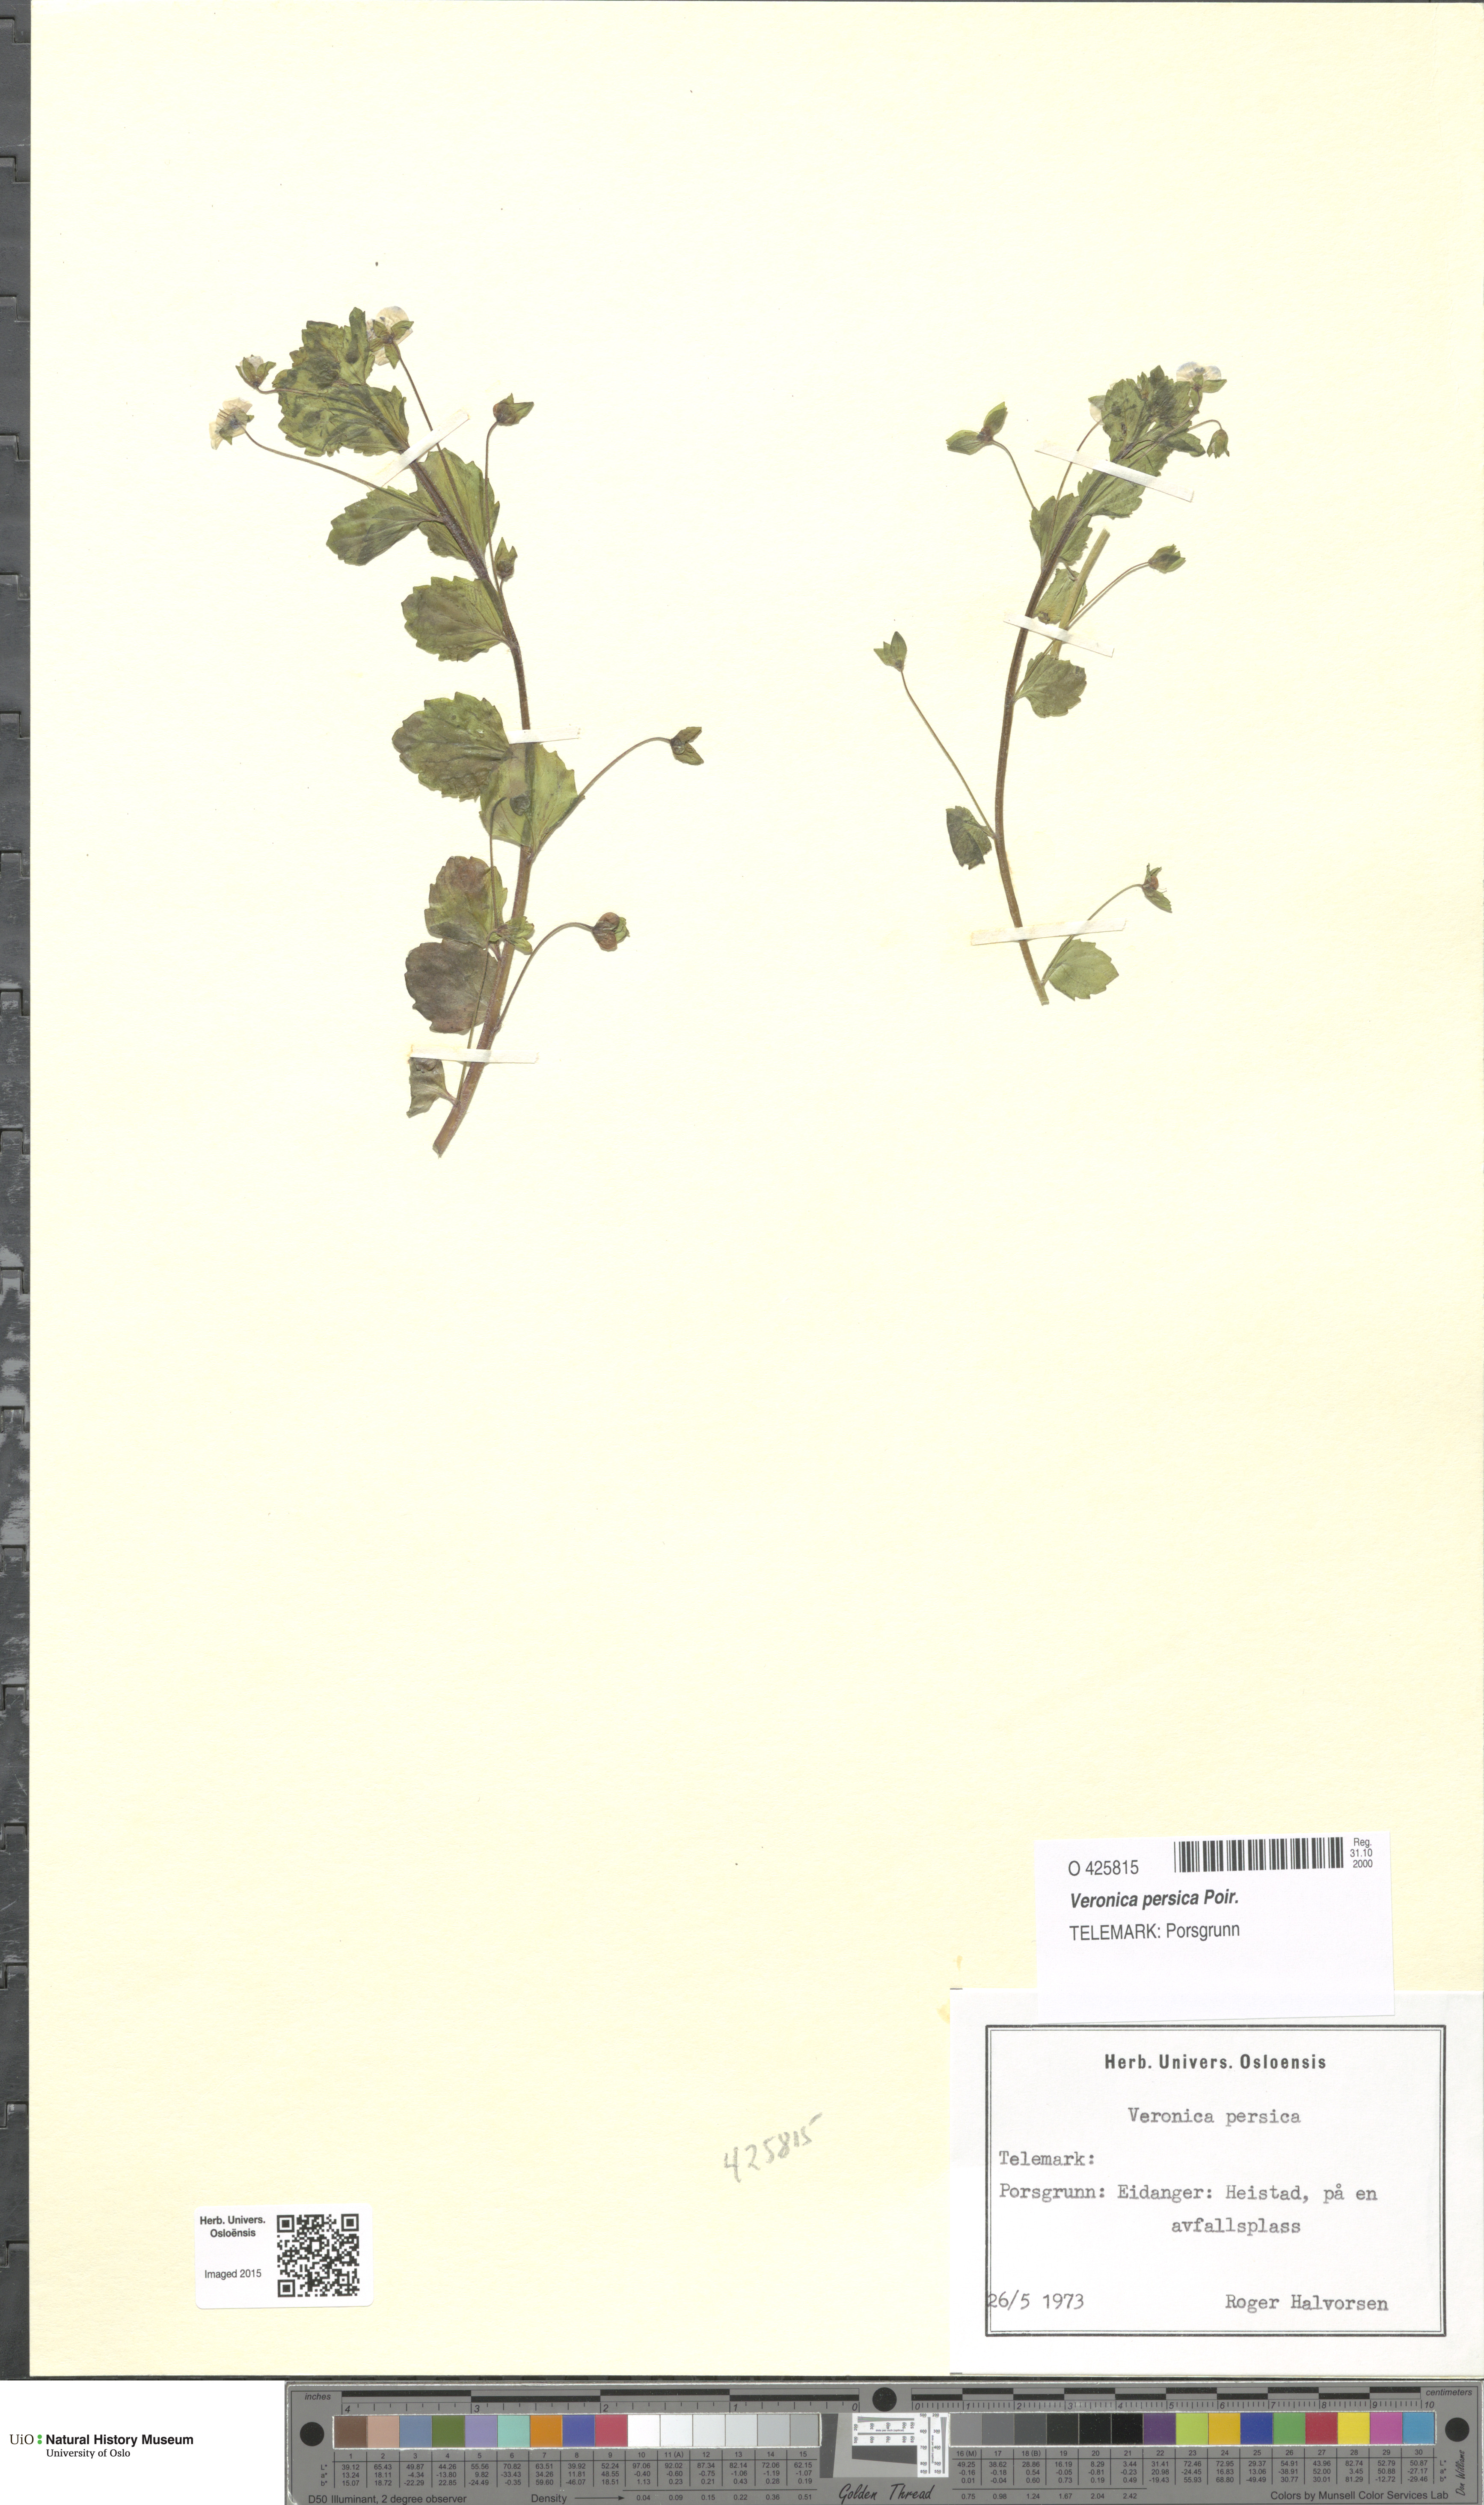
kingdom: Plantae
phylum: Tracheophyta
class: Magnoliopsida
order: Lamiales
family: Plantaginaceae
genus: Veronica
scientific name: Veronica persica
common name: Common field-speedwell
